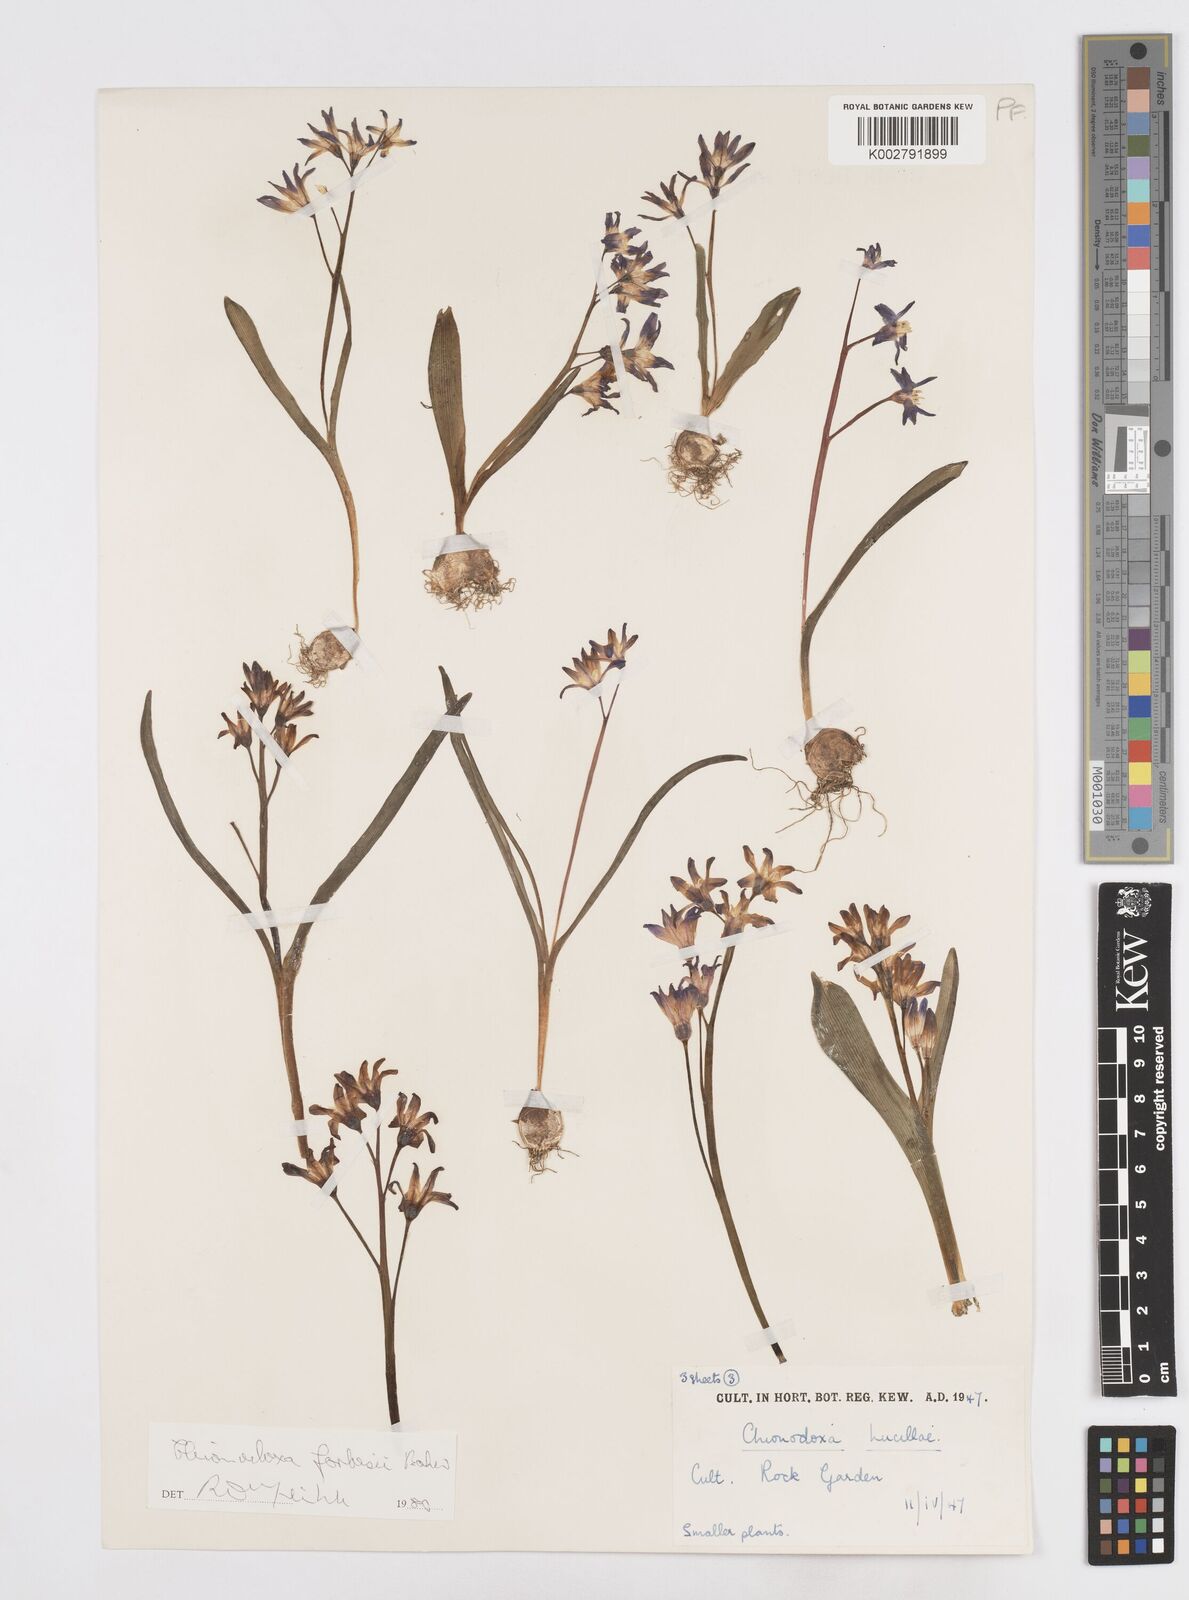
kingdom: Plantae
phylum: Tracheophyta
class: Liliopsida
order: Asparagales
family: Asparagaceae
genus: Scilla
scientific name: Scilla forbesii
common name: Glory-of-the-snow
